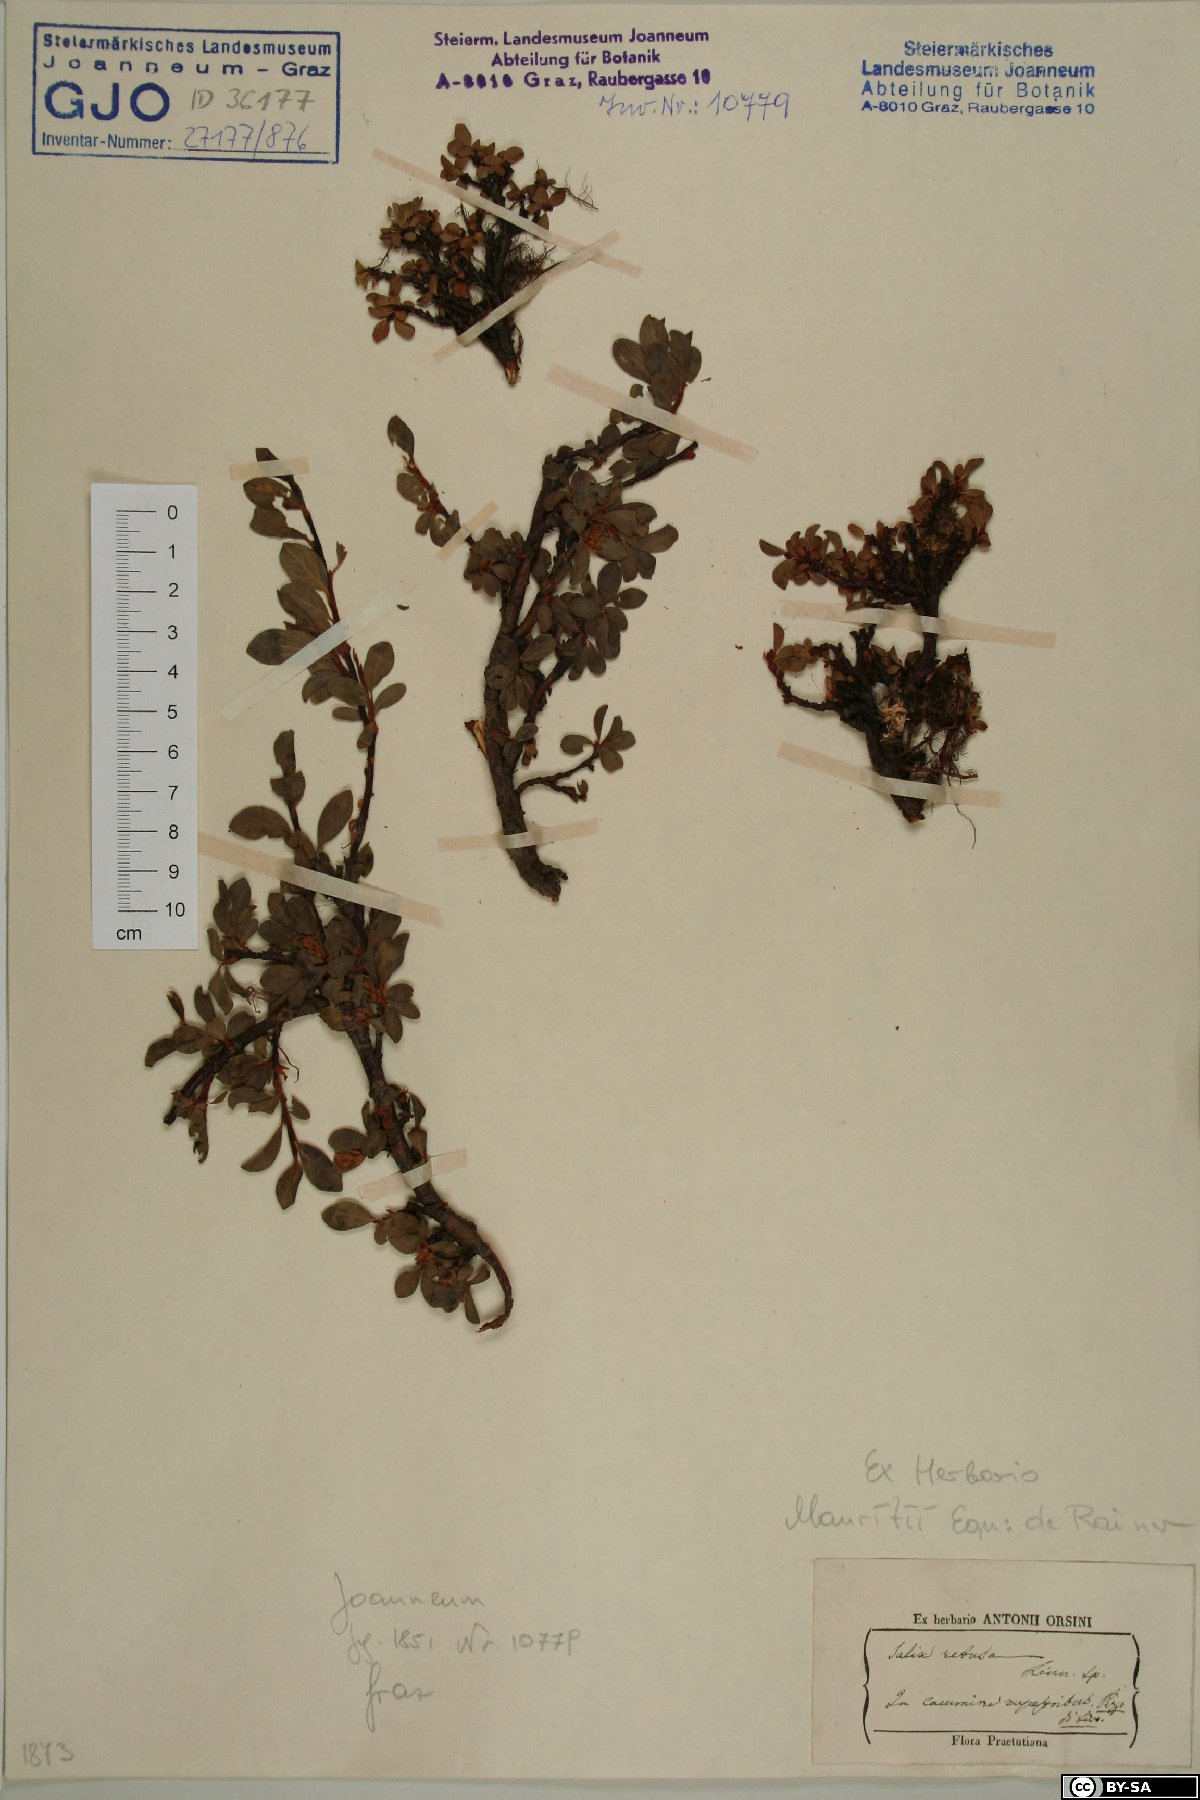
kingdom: Plantae
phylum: Tracheophyta
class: Magnoliopsida
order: Malpighiales
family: Salicaceae
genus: Salix
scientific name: Salix retusa
